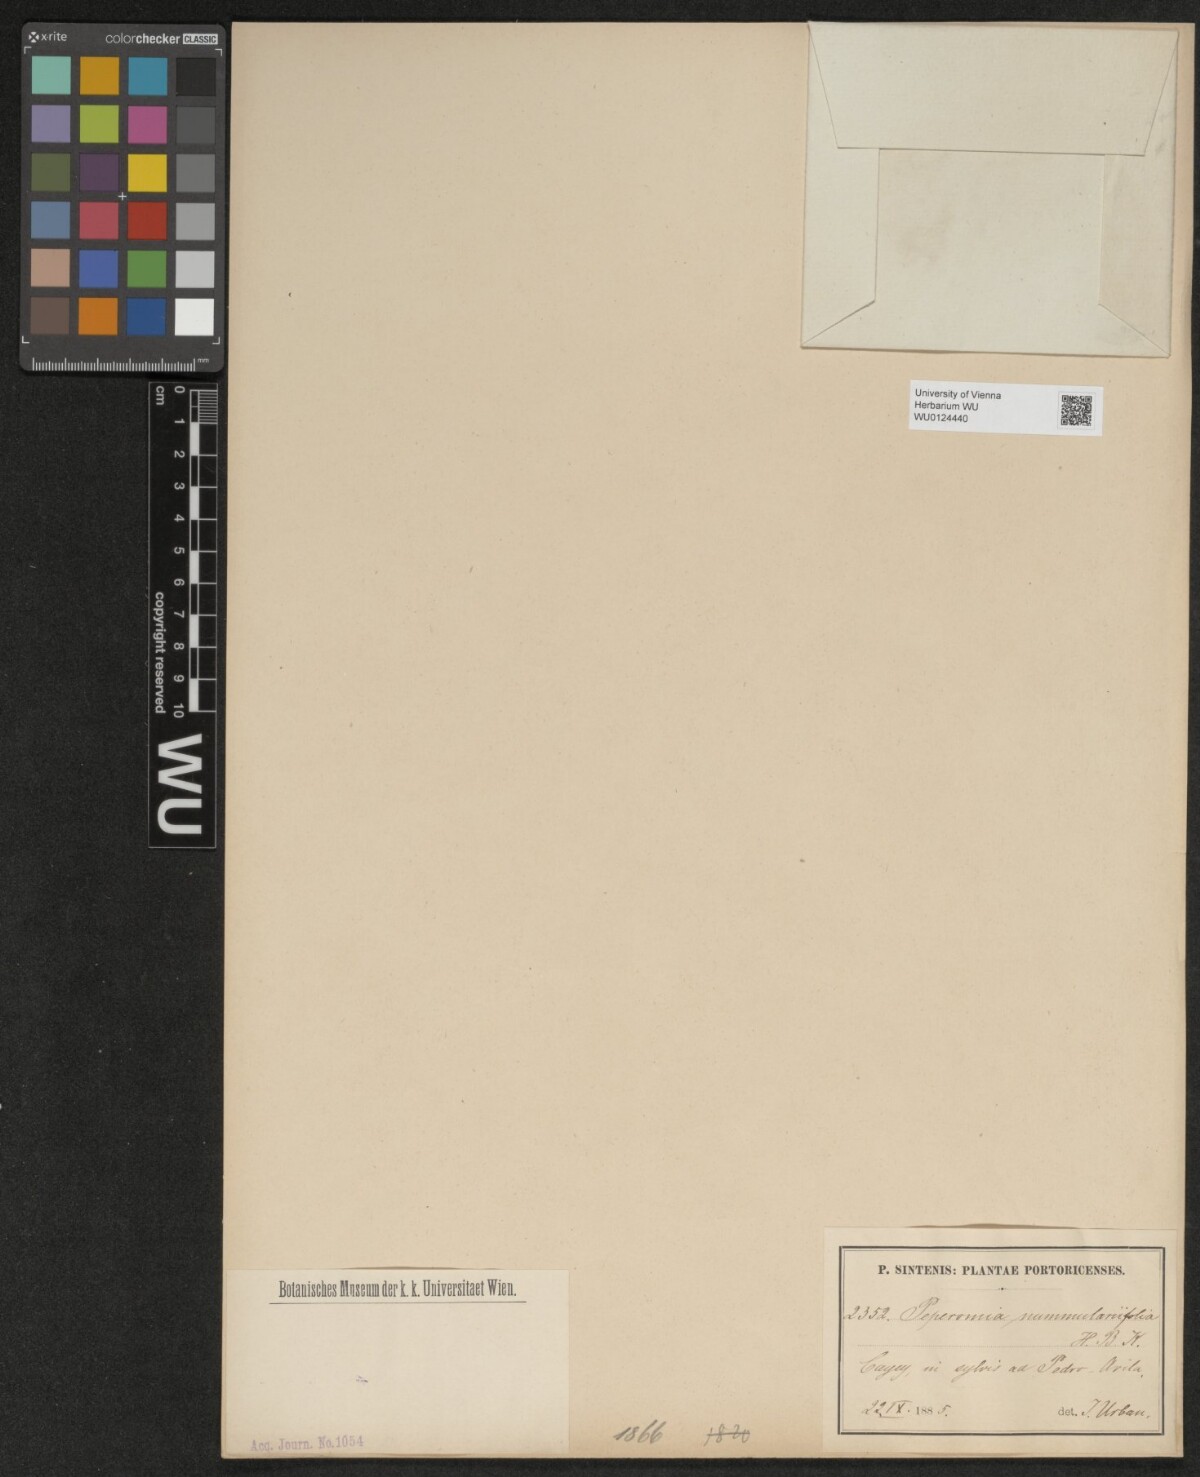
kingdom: Plantae
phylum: Tracheophyta
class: Magnoliopsida
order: Piperales
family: Piperaceae
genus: Peperomia
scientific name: Peperomia rotundifolia
